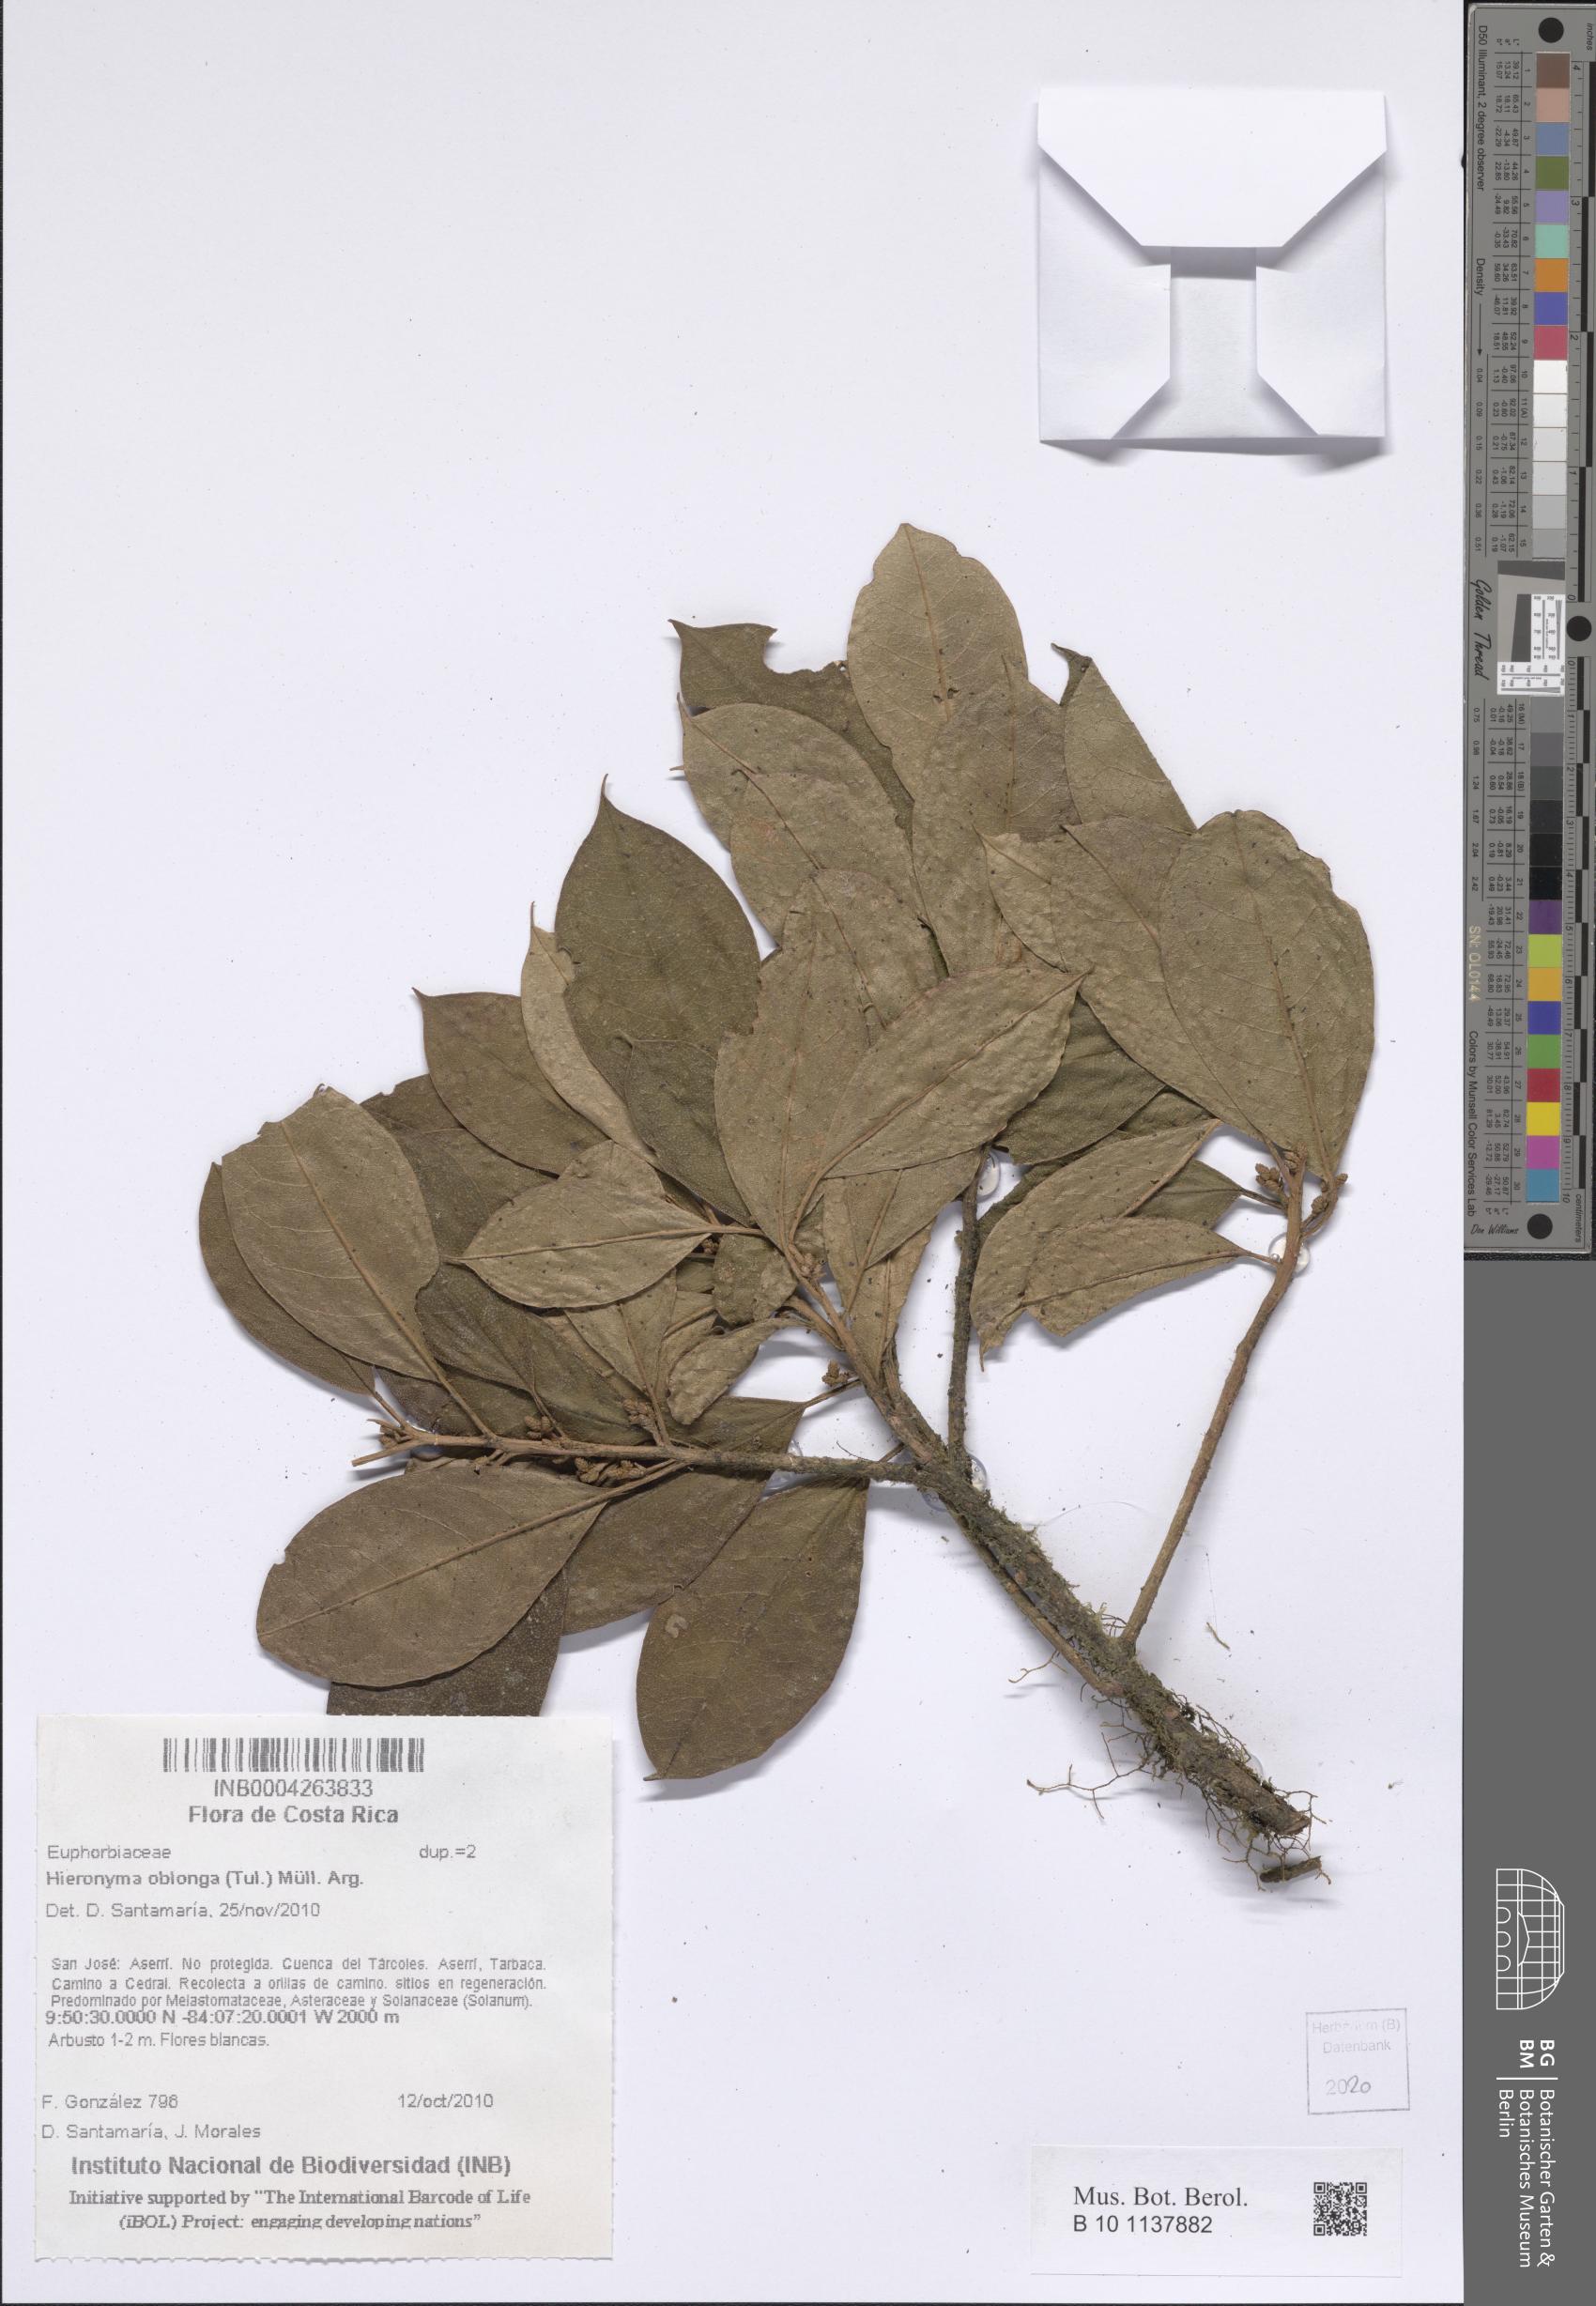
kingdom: Plantae
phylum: Tracheophyta
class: Magnoliopsida
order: Malpighiales
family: Phyllanthaceae
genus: Hieronyma
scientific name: Hieronyma oblonga
